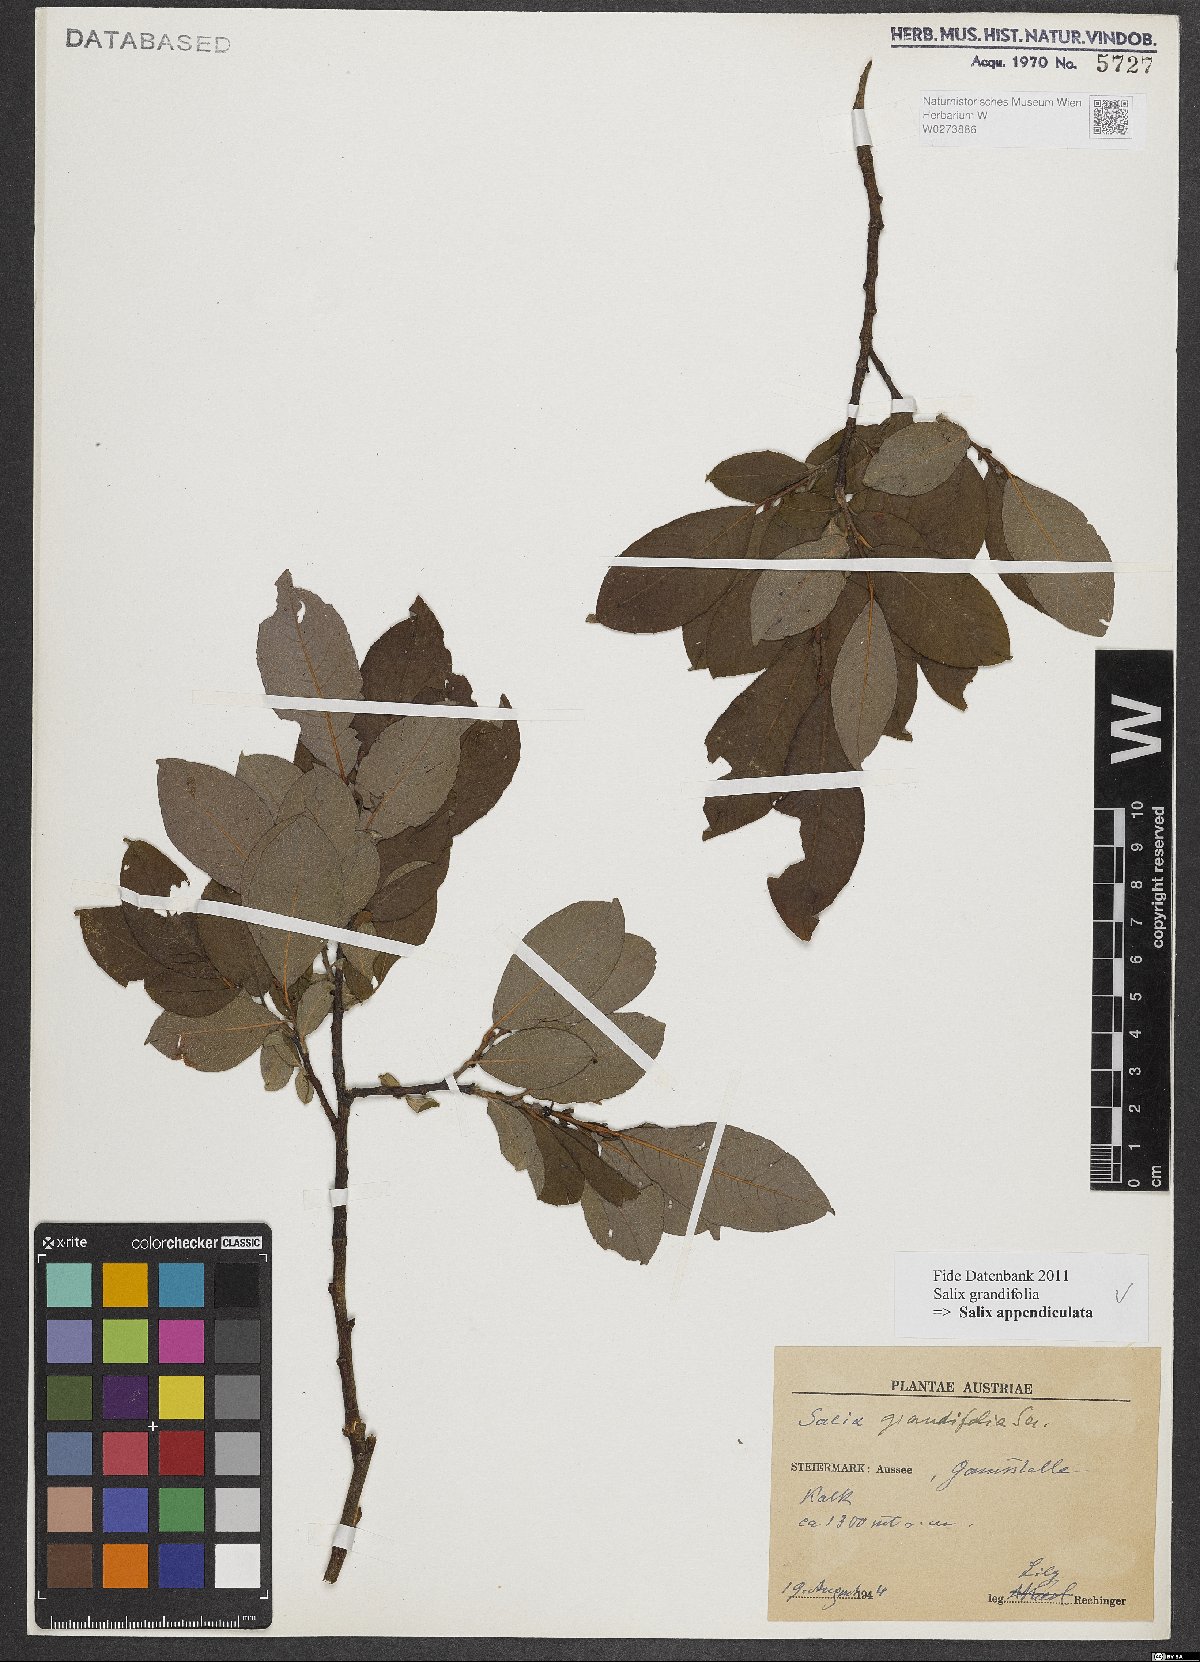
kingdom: Plantae
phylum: Tracheophyta
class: Magnoliopsida
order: Malpighiales
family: Salicaceae
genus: Salix
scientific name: Salix appendiculata
